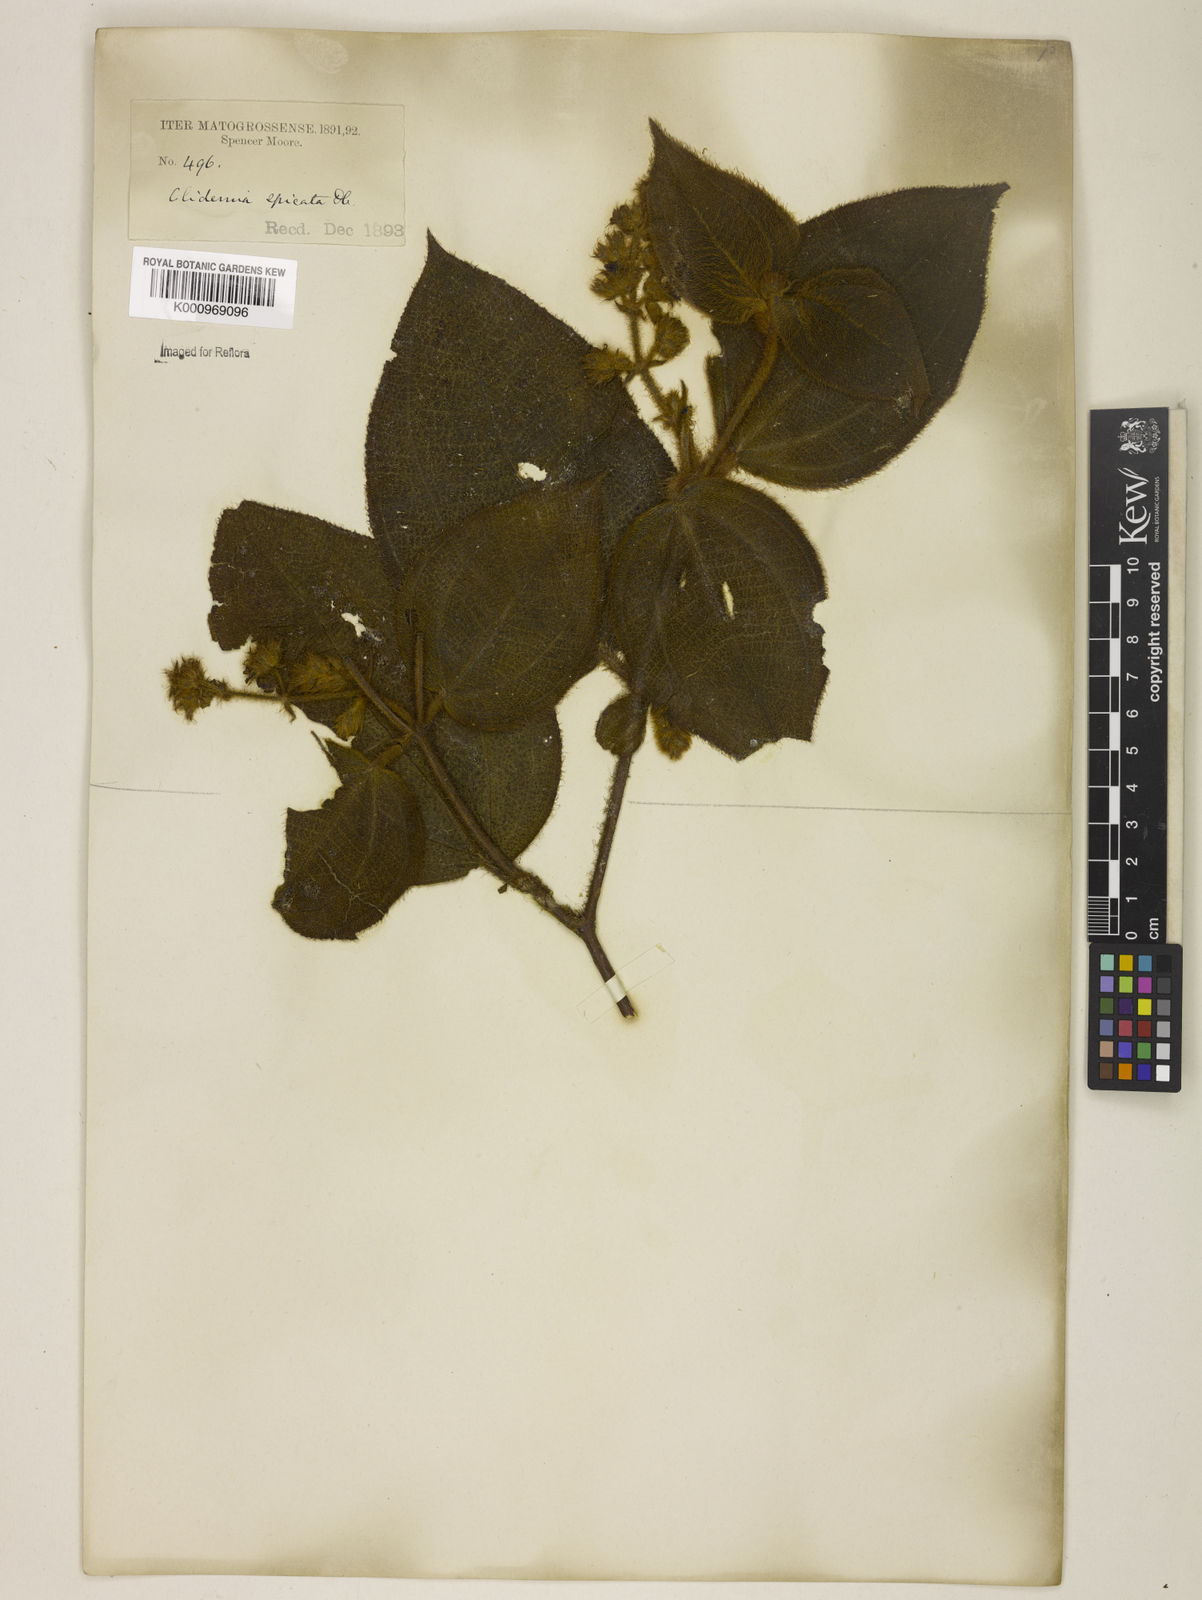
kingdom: Plantae
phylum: Tracheophyta
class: Magnoliopsida
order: Myrtales
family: Melastomataceae
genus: Miconia
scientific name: Miconia dependens
